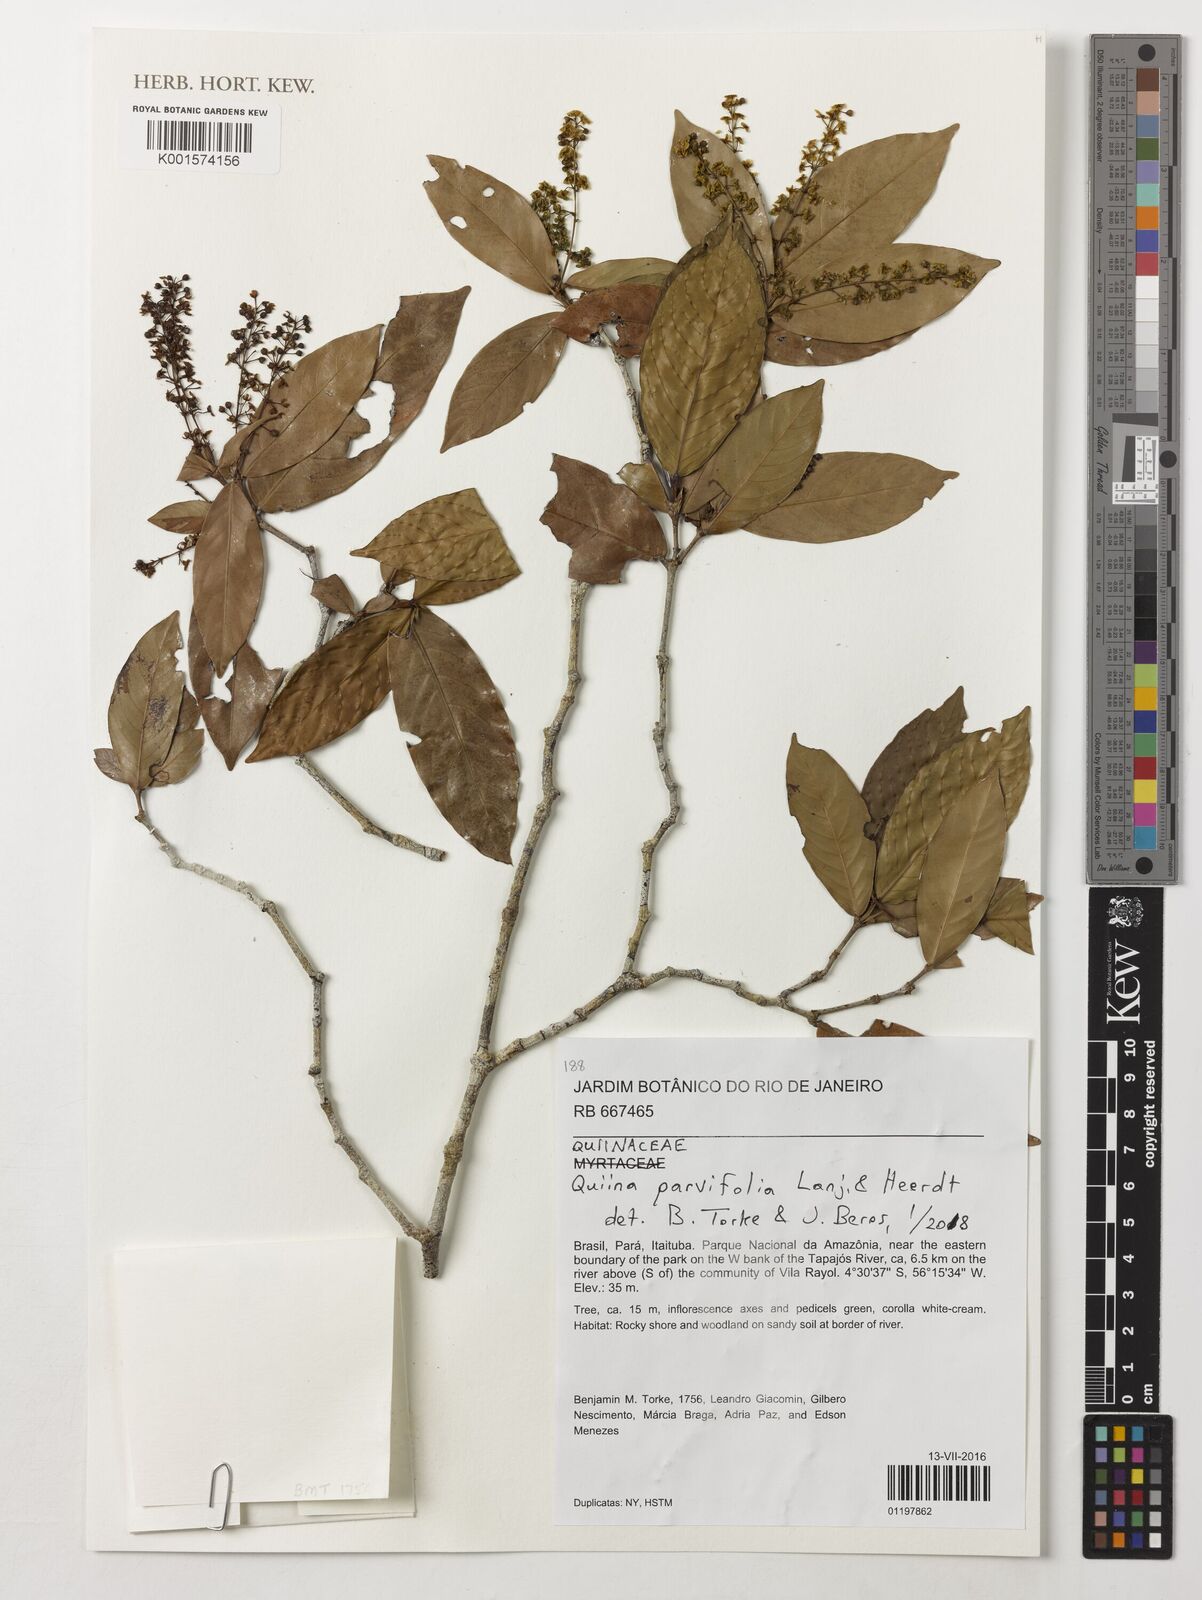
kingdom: Plantae
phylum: Tracheophyta
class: Magnoliopsida
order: Malpighiales
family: Quiinaceae
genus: Quiina
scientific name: Quiina parvifolia
